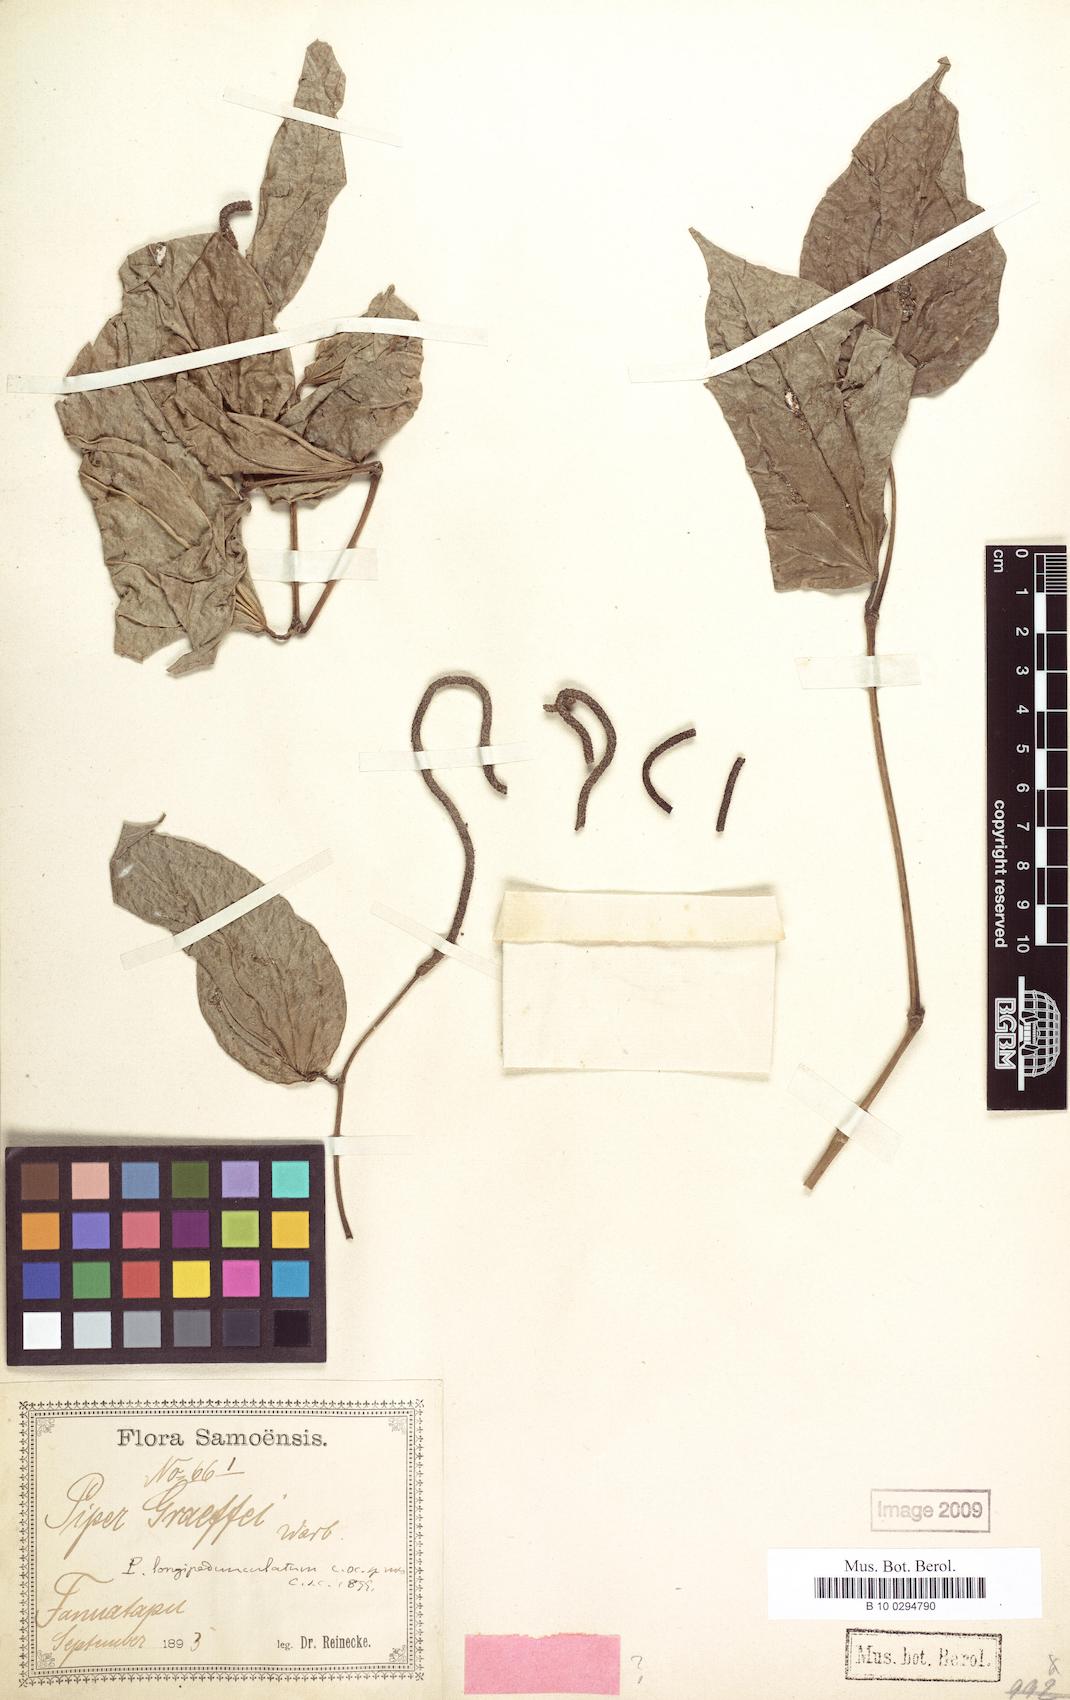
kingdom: Plantae
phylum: Tracheophyta
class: Magnoliopsida
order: Piperales
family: Piperaceae
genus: Piper
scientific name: Piper longipedunculatum
